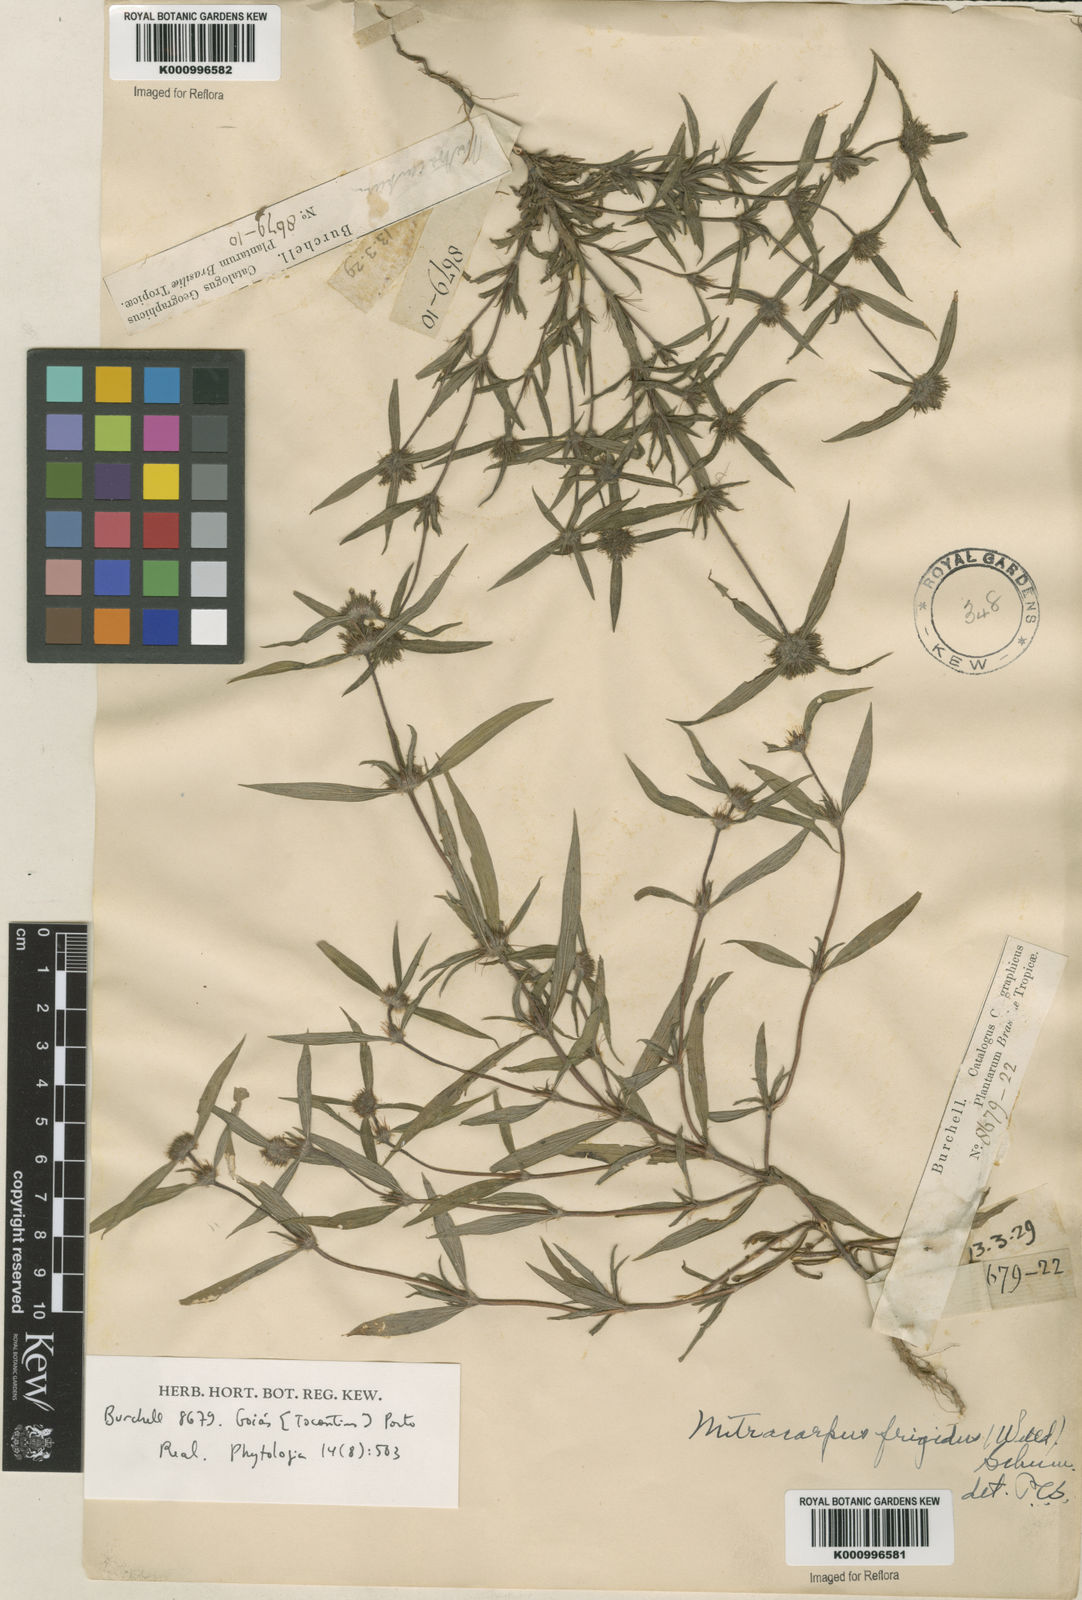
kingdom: Plantae
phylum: Tracheophyta
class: Magnoliopsida
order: Gentianales
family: Rubiaceae
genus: Spermacoce
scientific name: Spermacoce capitata
